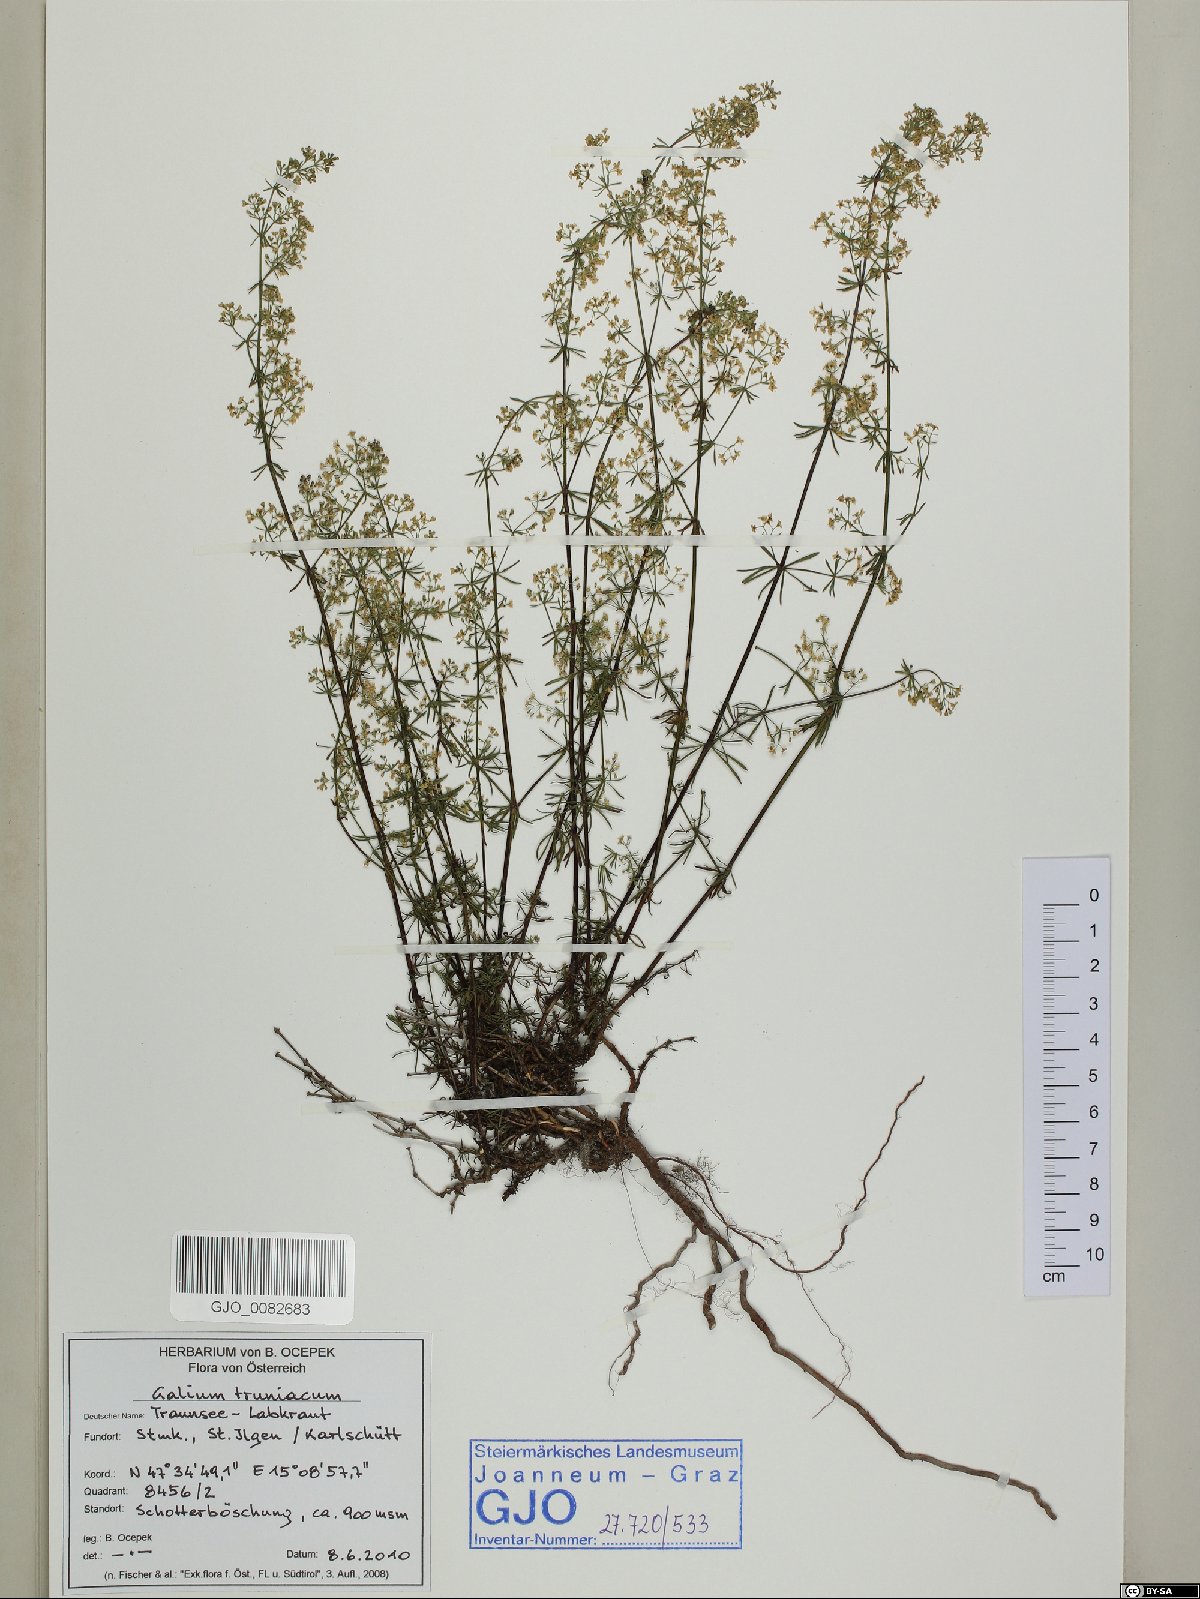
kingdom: Plantae
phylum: Tracheophyta
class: Magnoliopsida
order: Gentianales
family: Rubiaceae
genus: Galium
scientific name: Galium truniacum
